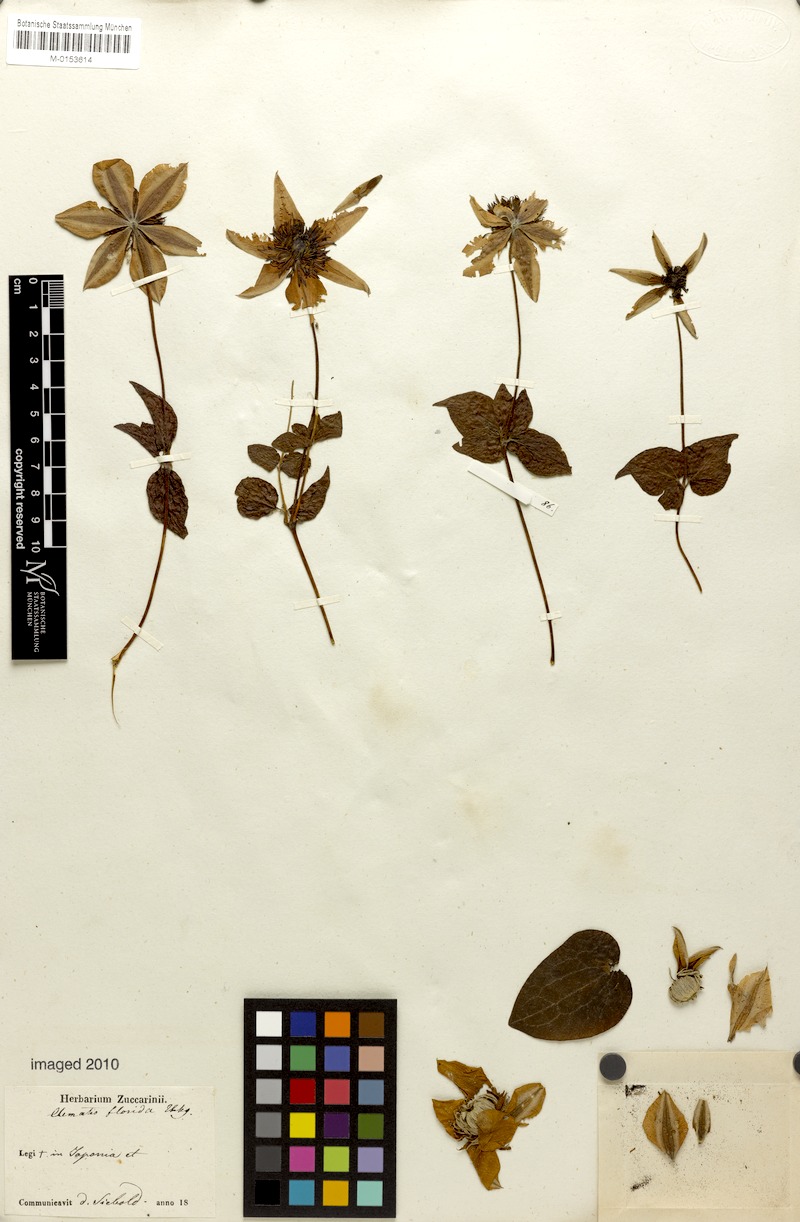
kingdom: Plantae
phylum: Tracheophyta
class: Magnoliopsida
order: Ranunculales
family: Ranunculaceae
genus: Clematis
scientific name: Clematis florida
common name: Asian virginsbower
